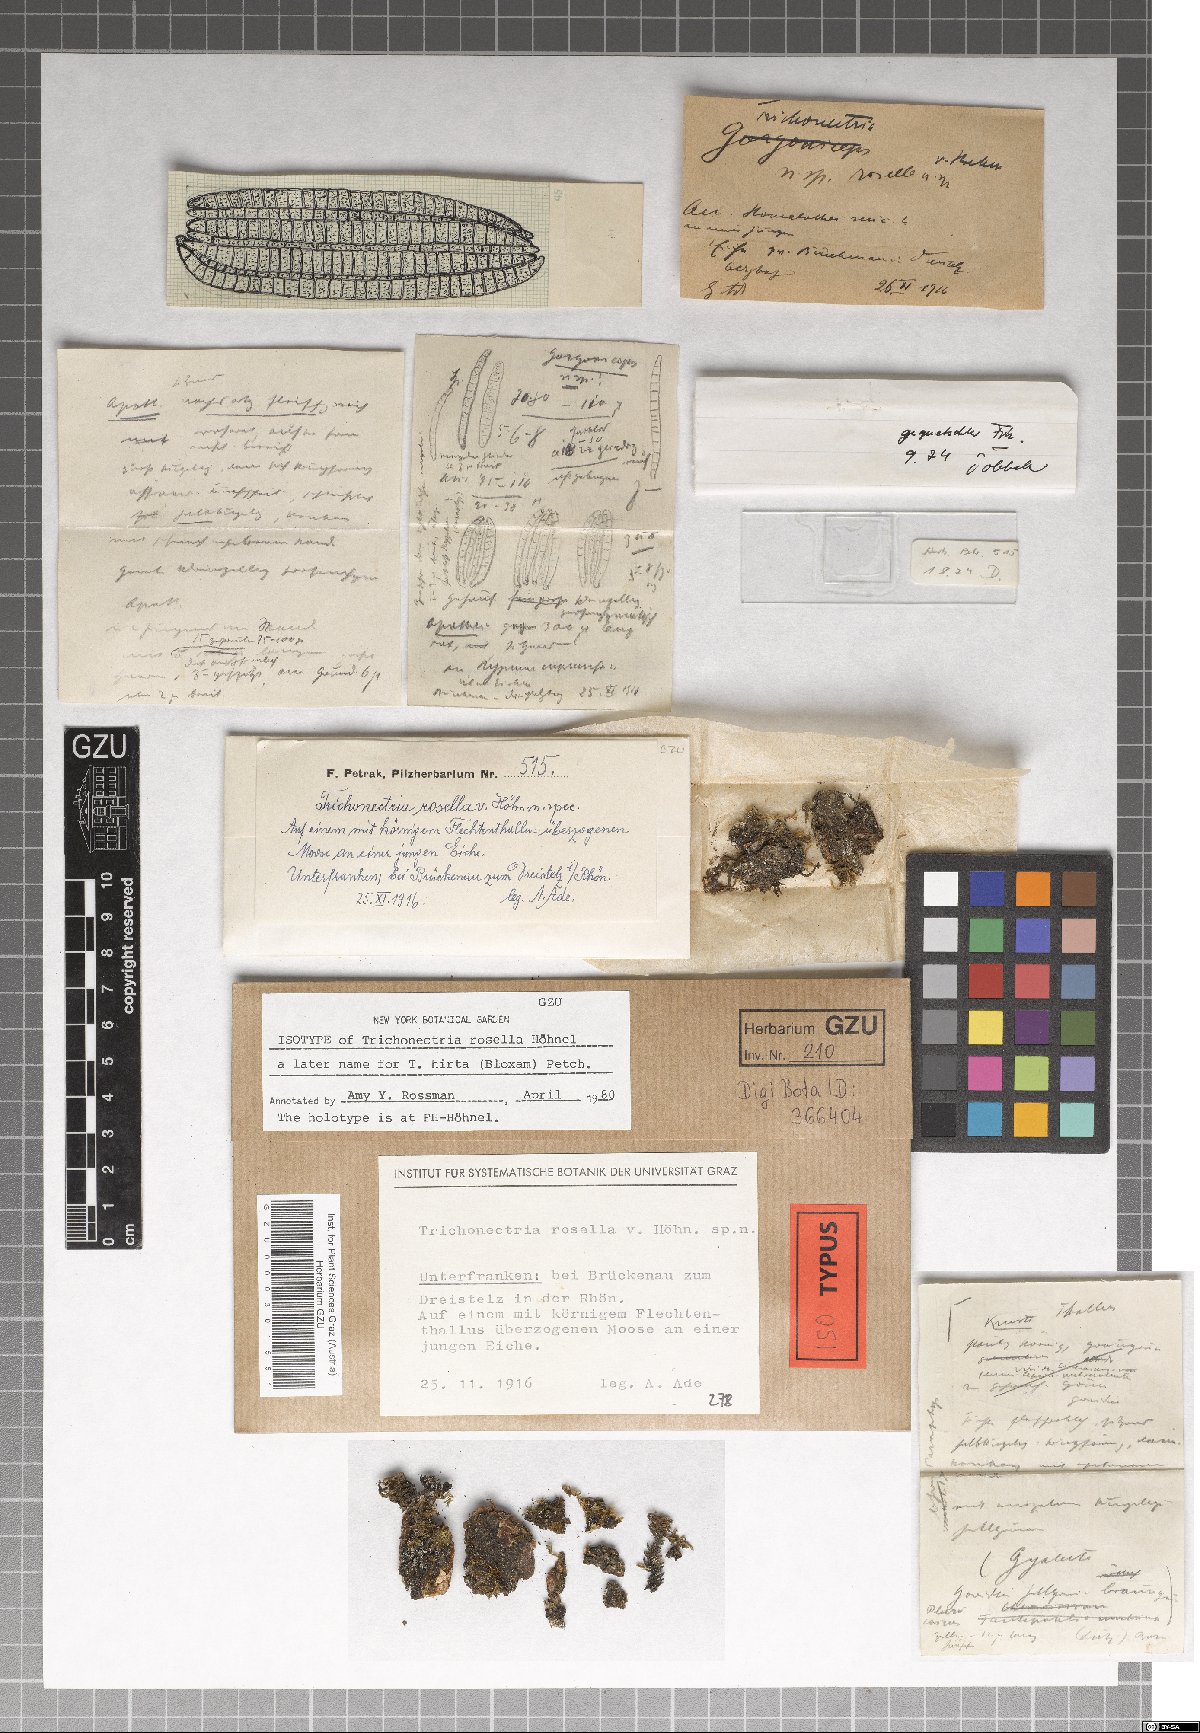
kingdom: Fungi
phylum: Ascomycota
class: Sordariomycetes
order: Hypocreales
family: Bionectriaceae
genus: Trichonectria
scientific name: Trichonectria rosella
